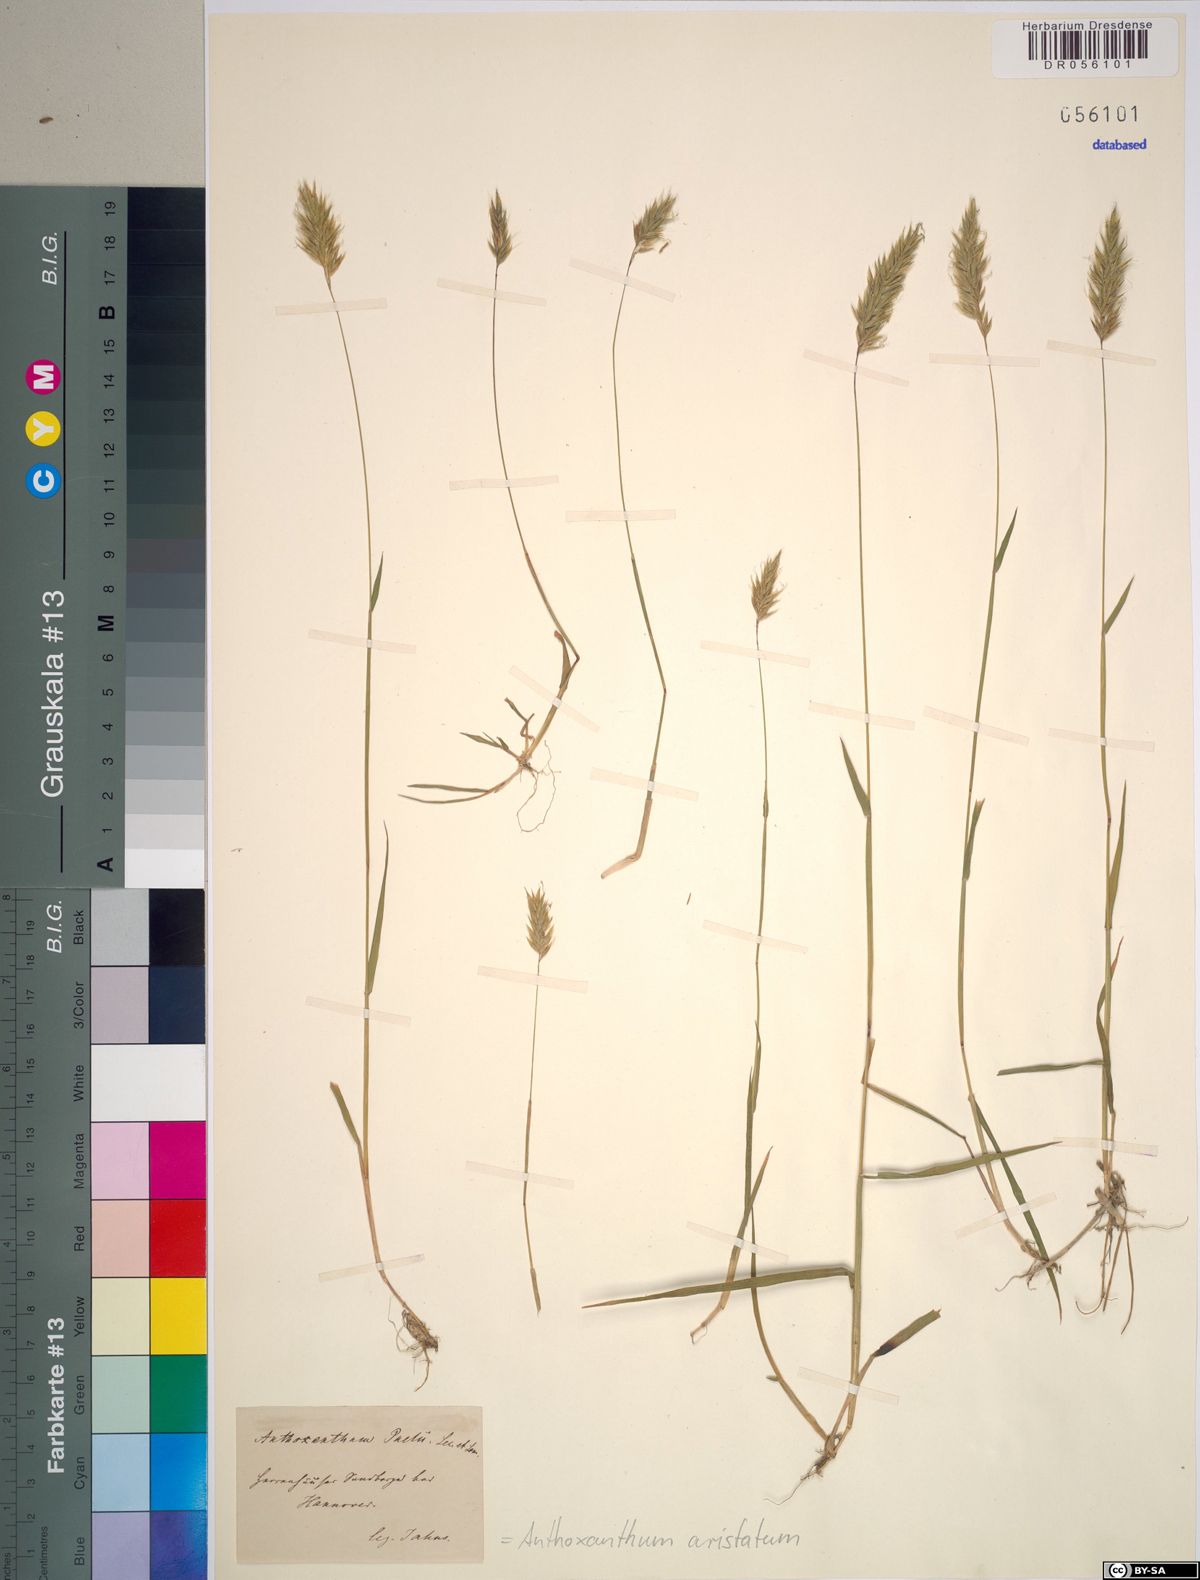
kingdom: Plantae
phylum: Tracheophyta
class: Liliopsida
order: Poales
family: Poaceae
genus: Anthoxanthum
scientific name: Anthoxanthum aristatum
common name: Annual vernal-grass
